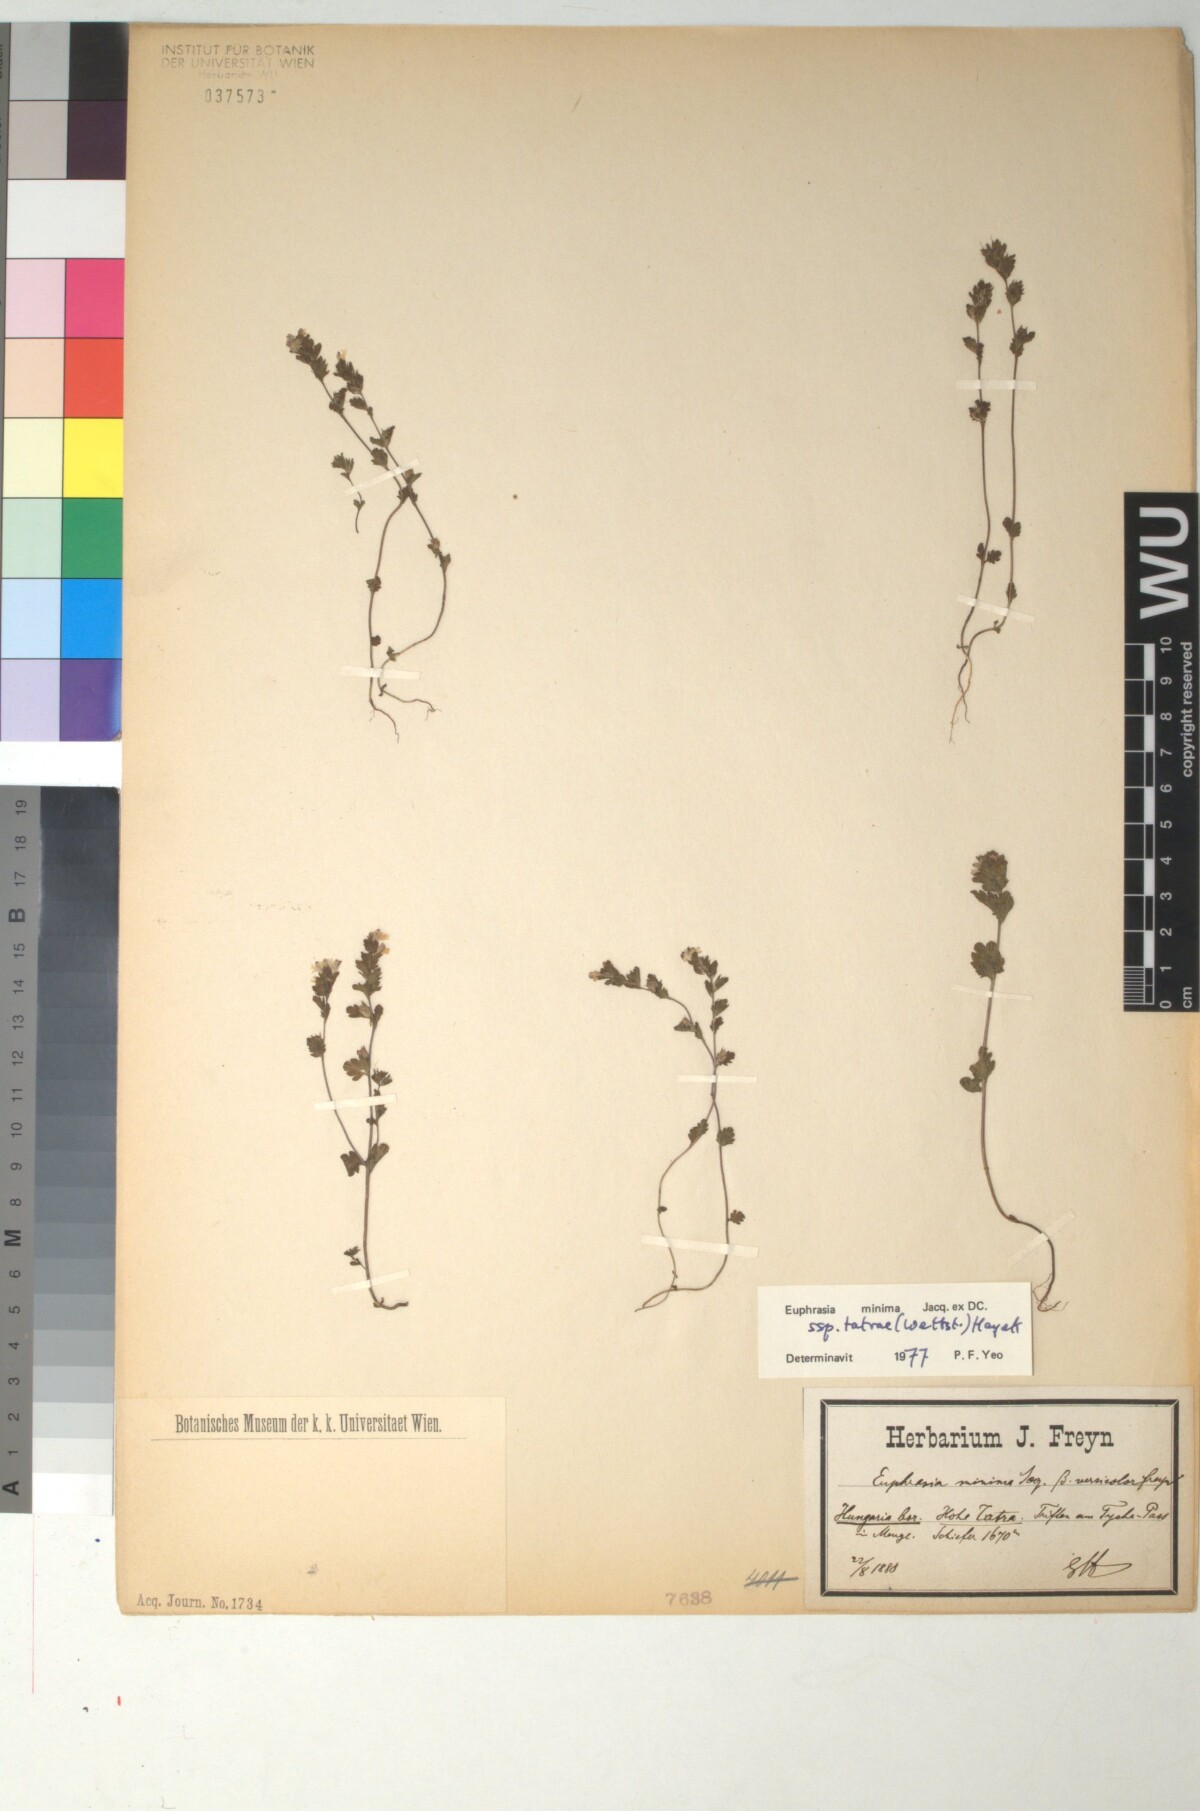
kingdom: Plantae
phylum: Tracheophyta
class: Magnoliopsida
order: Lamiales
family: Orobanchaceae
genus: Euphrasia
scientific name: Euphrasia tatrae
